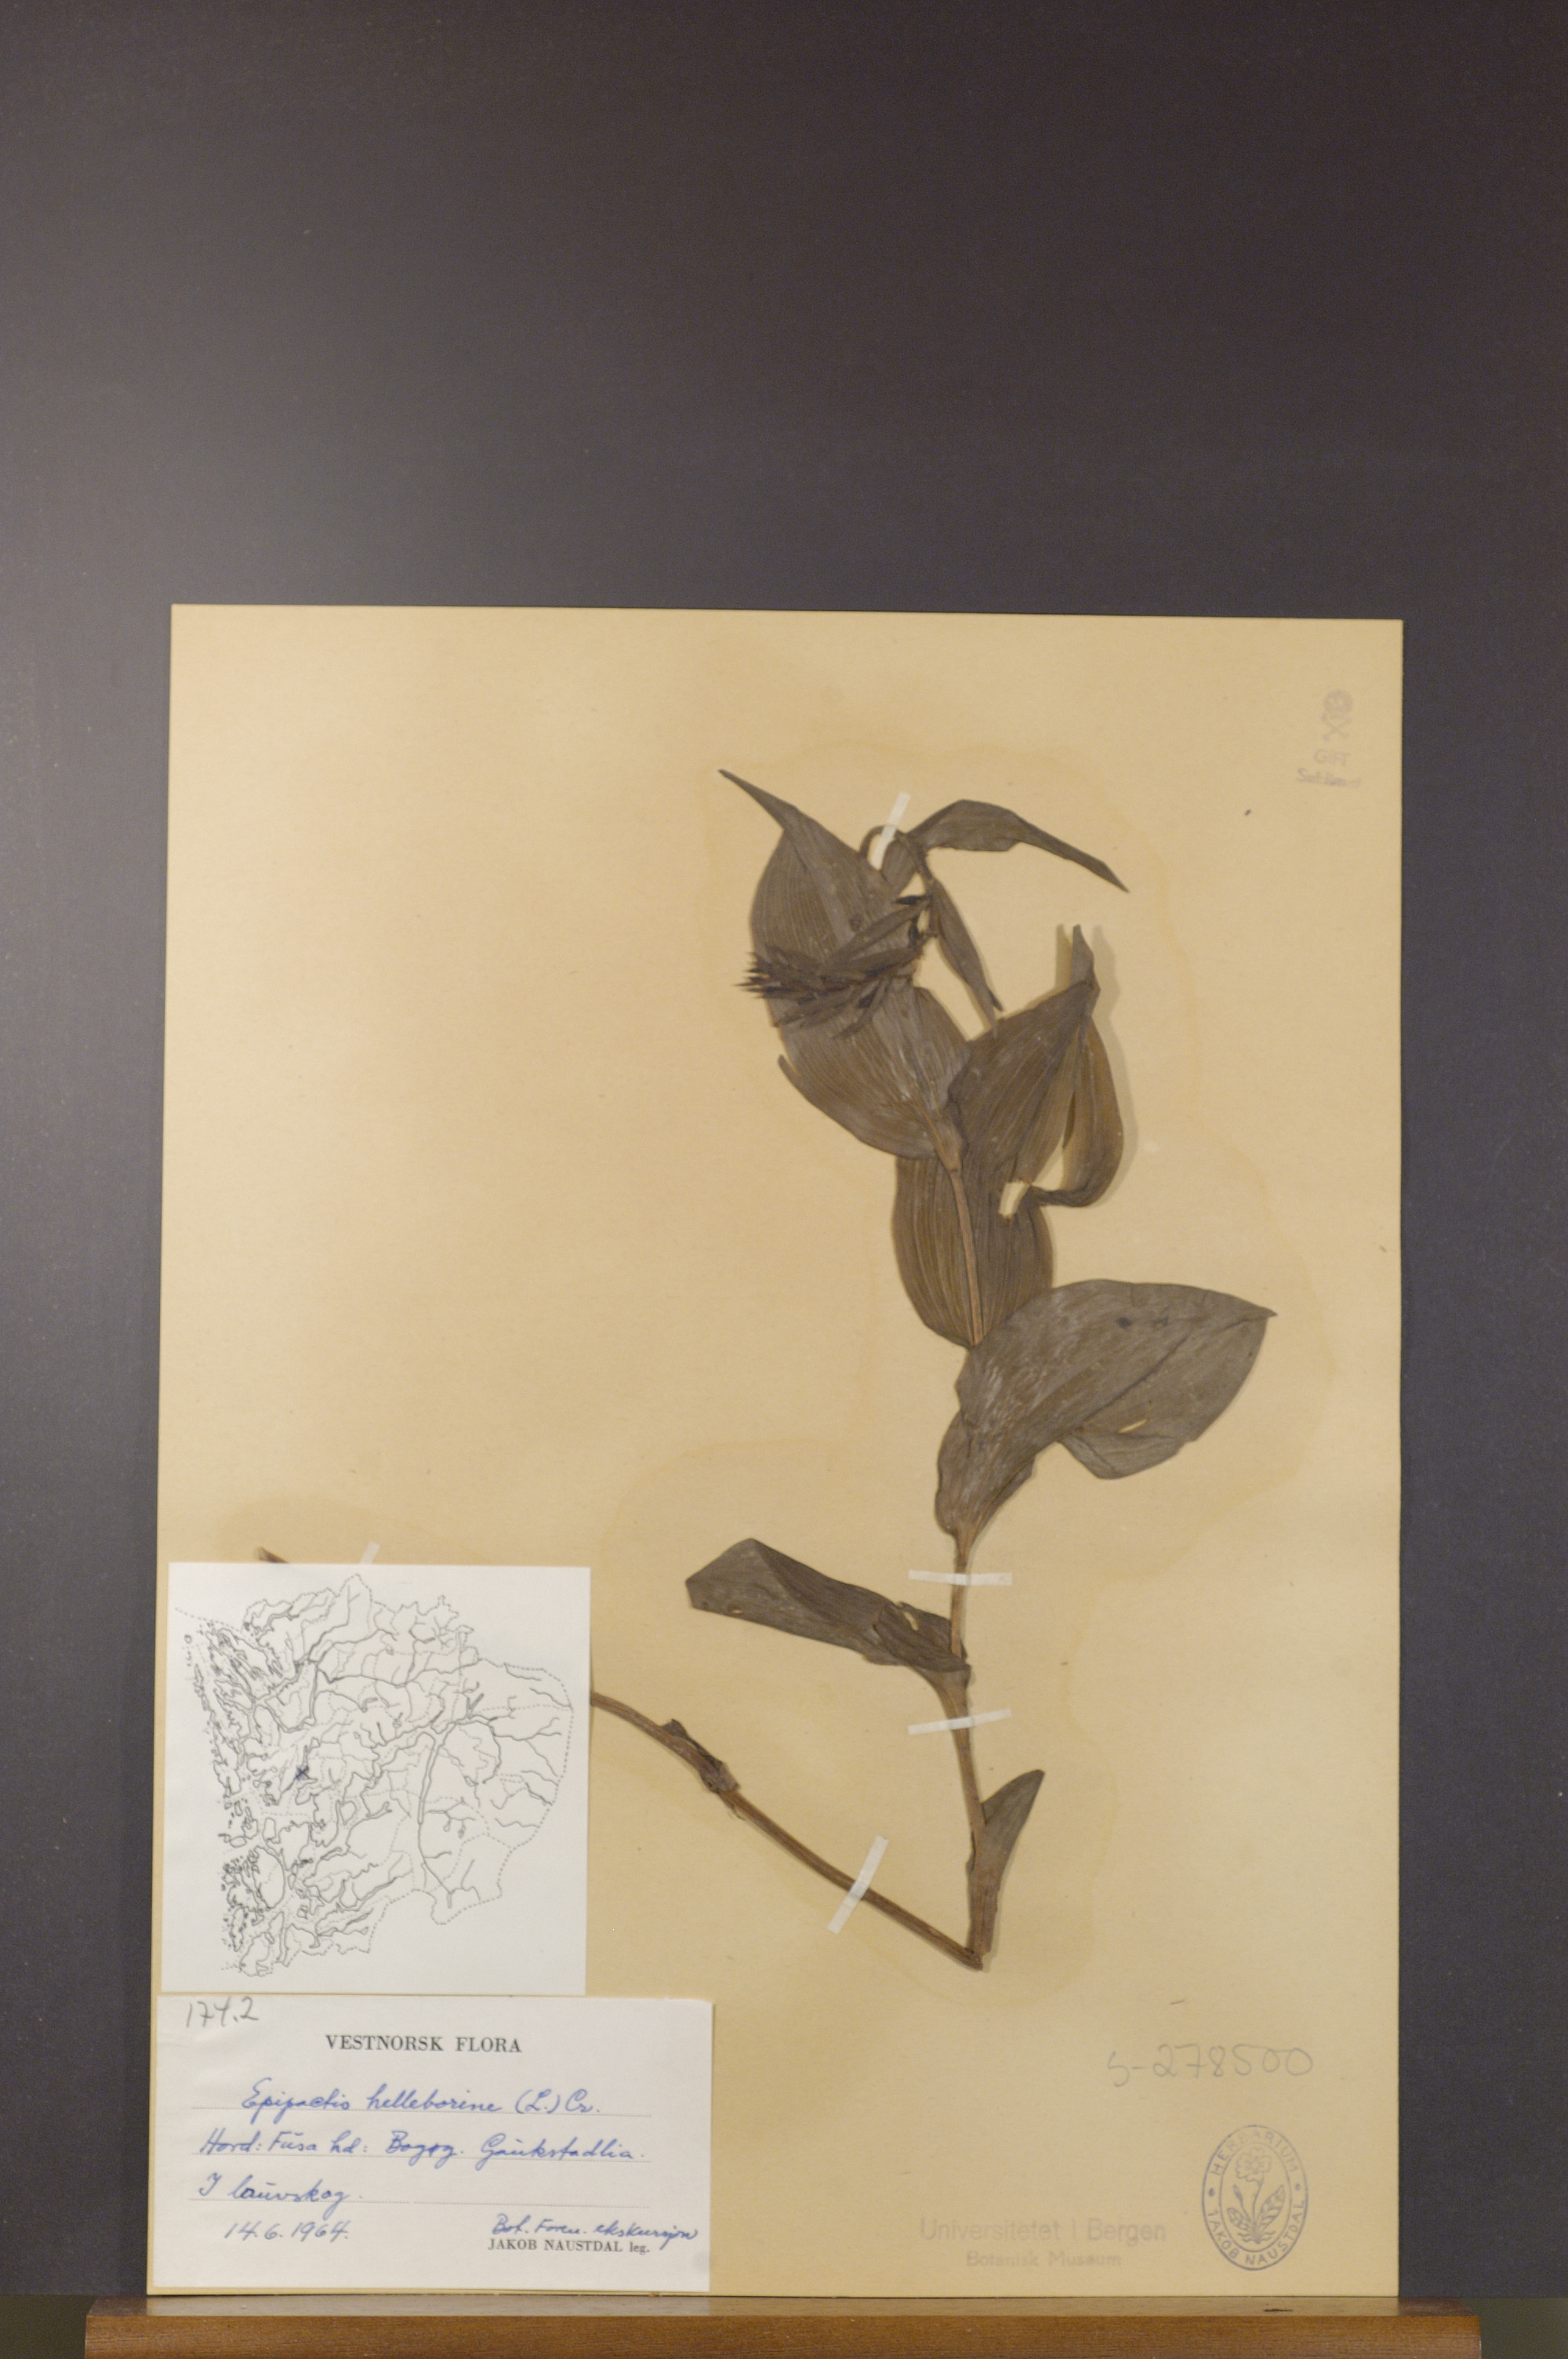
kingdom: Plantae
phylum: Tracheophyta
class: Liliopsida
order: Asparagales
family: Orchidaceae
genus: Epipactis
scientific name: Epipactis helleborine
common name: Broad-leaved helleborine
